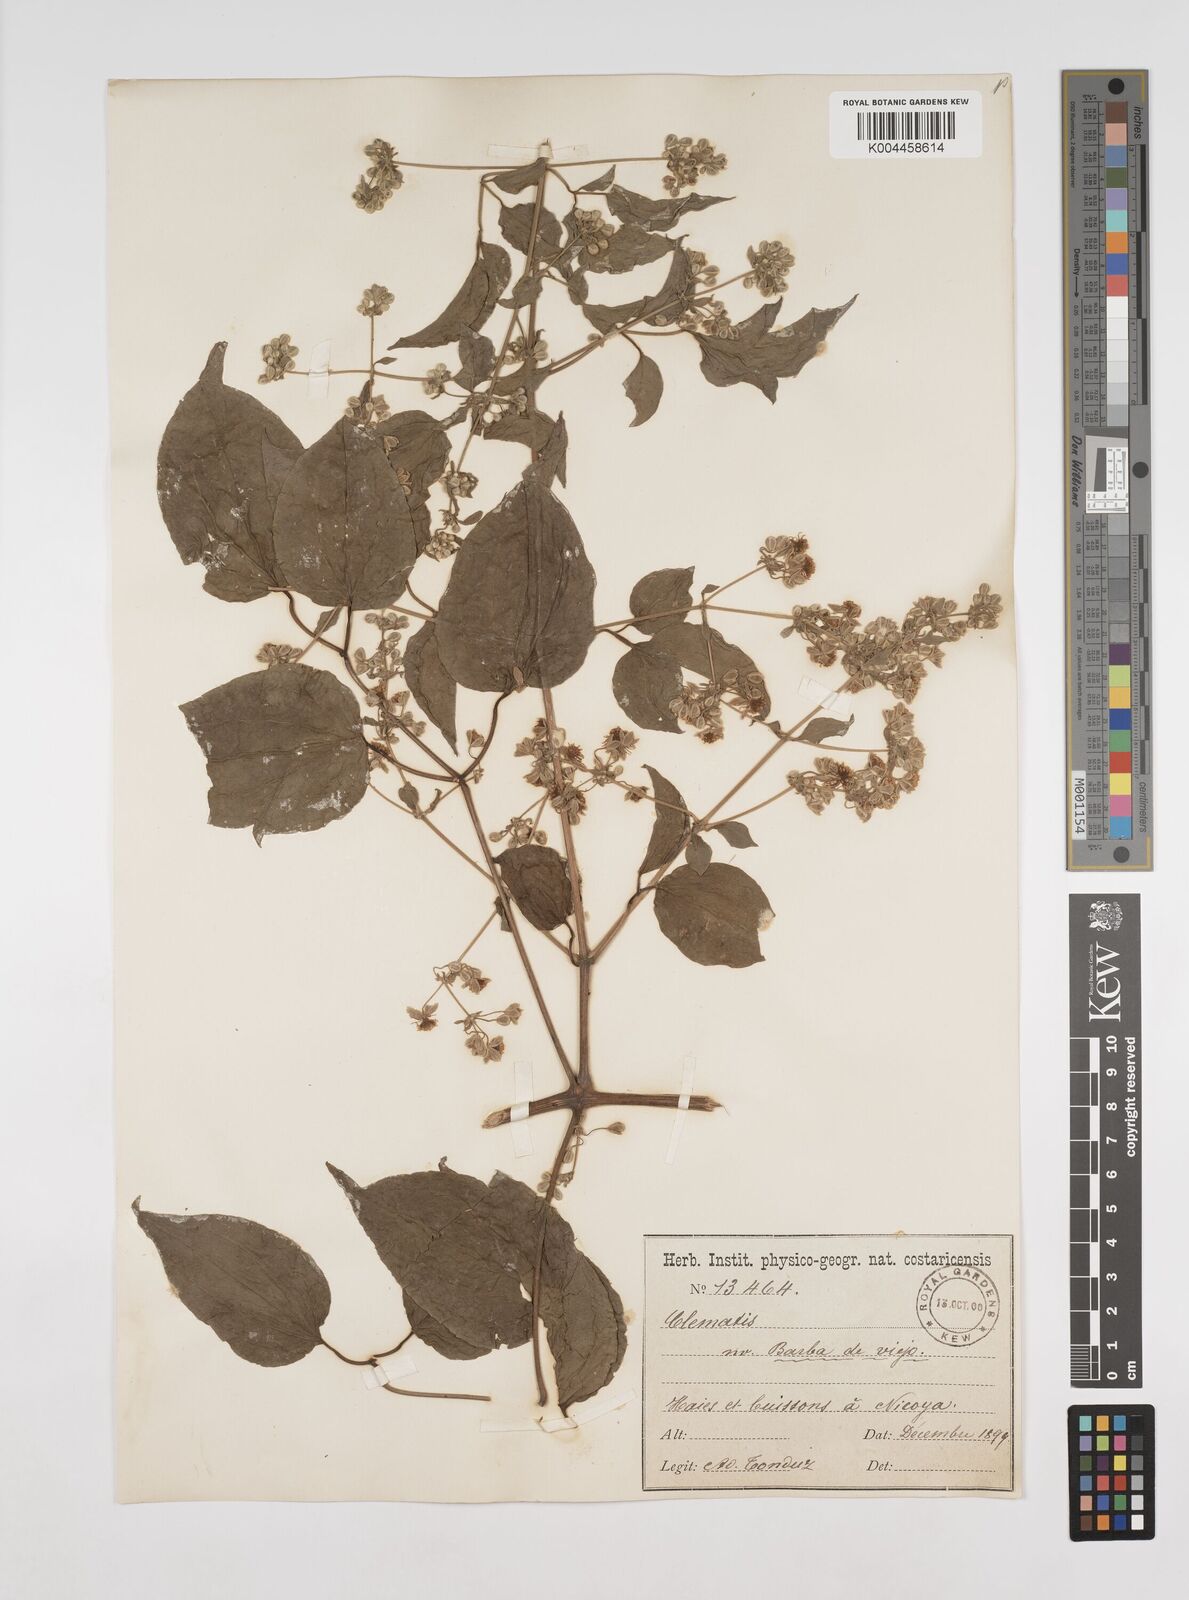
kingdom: Plantae
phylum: Tracheophyta
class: Magnoliopsida
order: Ranunculales
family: Ranunculaceae
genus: Clematis
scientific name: Clematis acapulcensis
